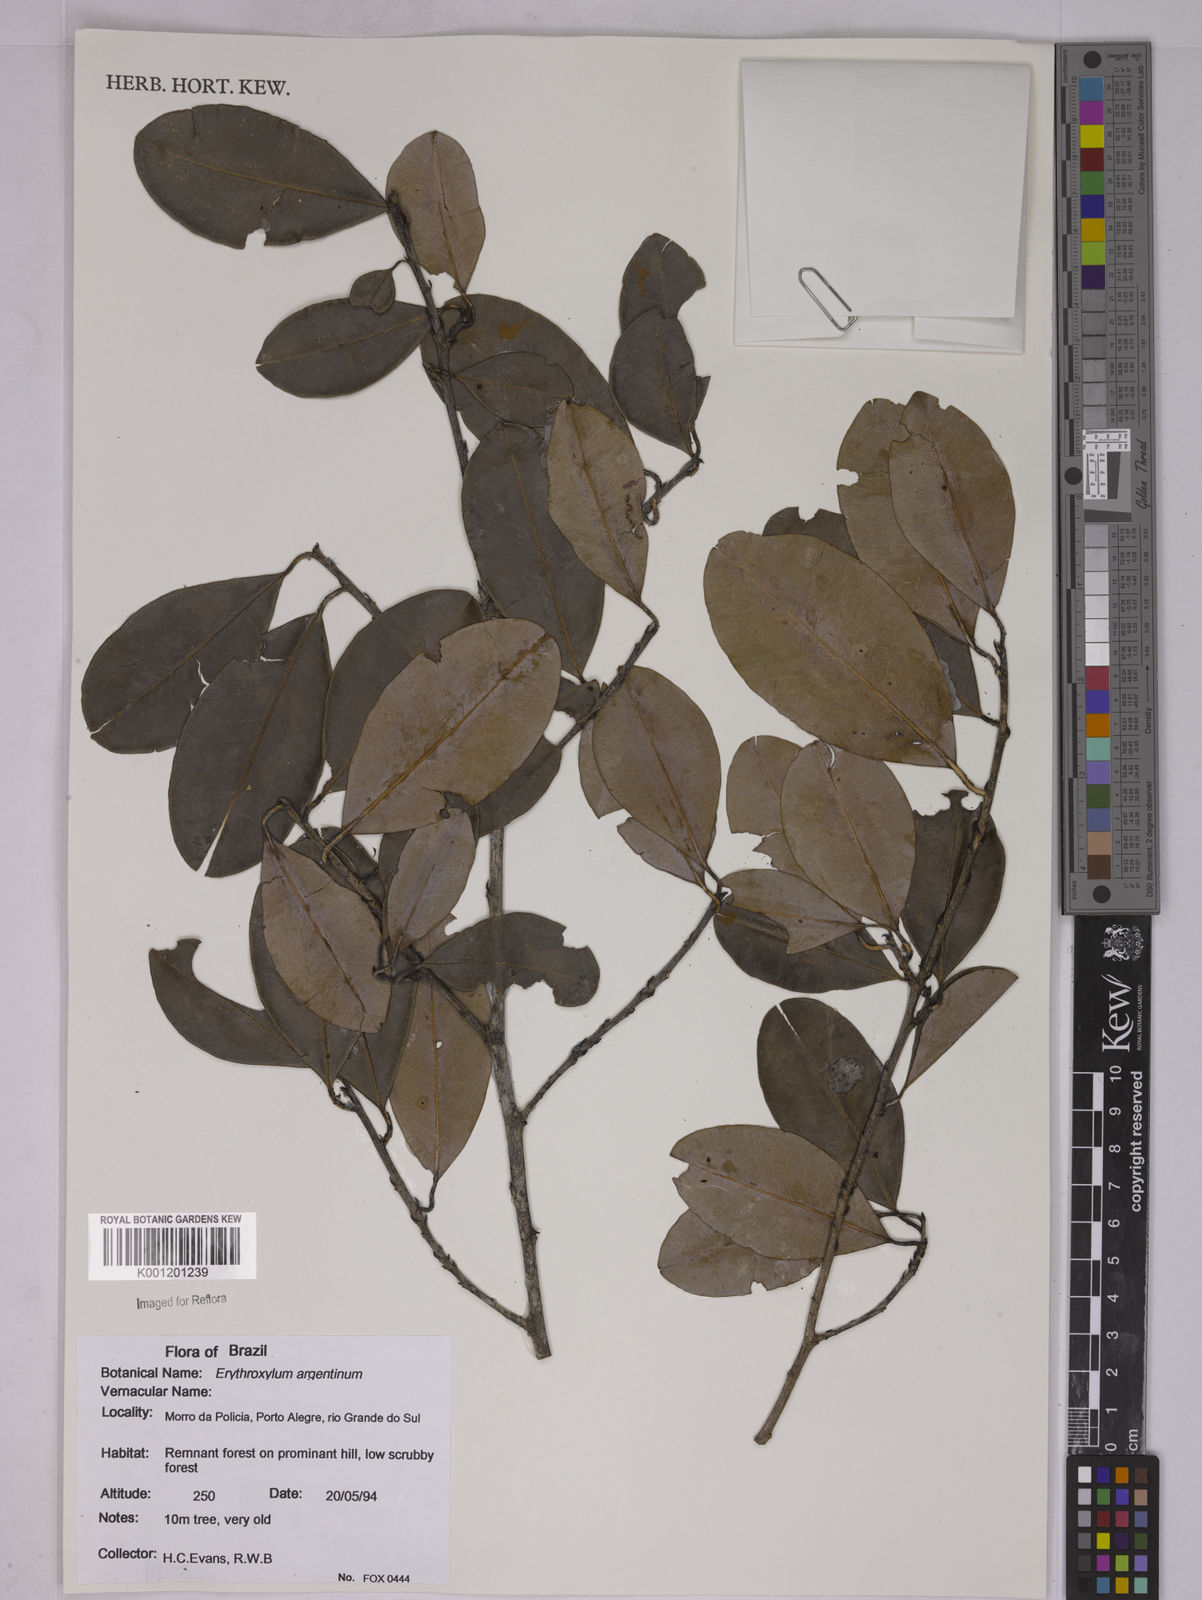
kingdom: Plantae
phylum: Tracheophyta
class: Magnoliopsida
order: Malpighiales
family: Erythroxylaceae
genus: Erythroxylum
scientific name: Erythroxylum argentinum
